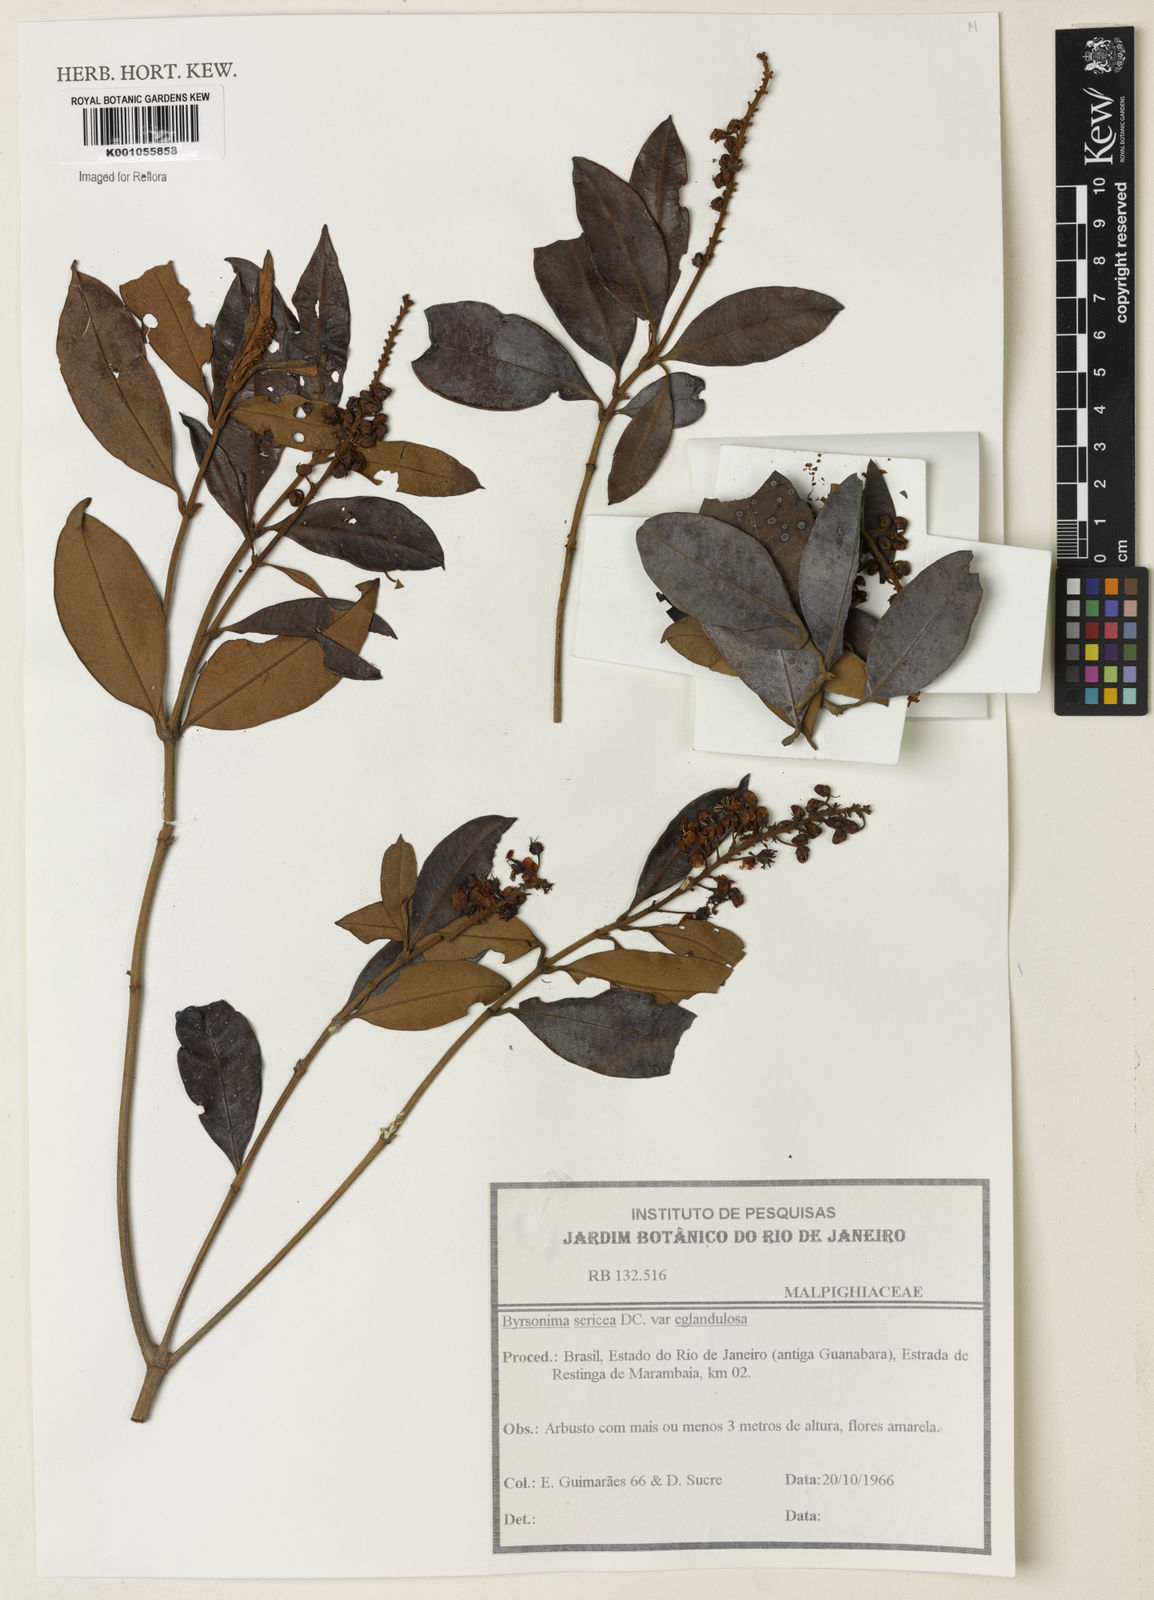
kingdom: Plantae
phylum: Tracheophyta
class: Magnoliopsida
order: Malpighiales
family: Malpighiaceae
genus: Byrsonima
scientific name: Byrsonima sericea
